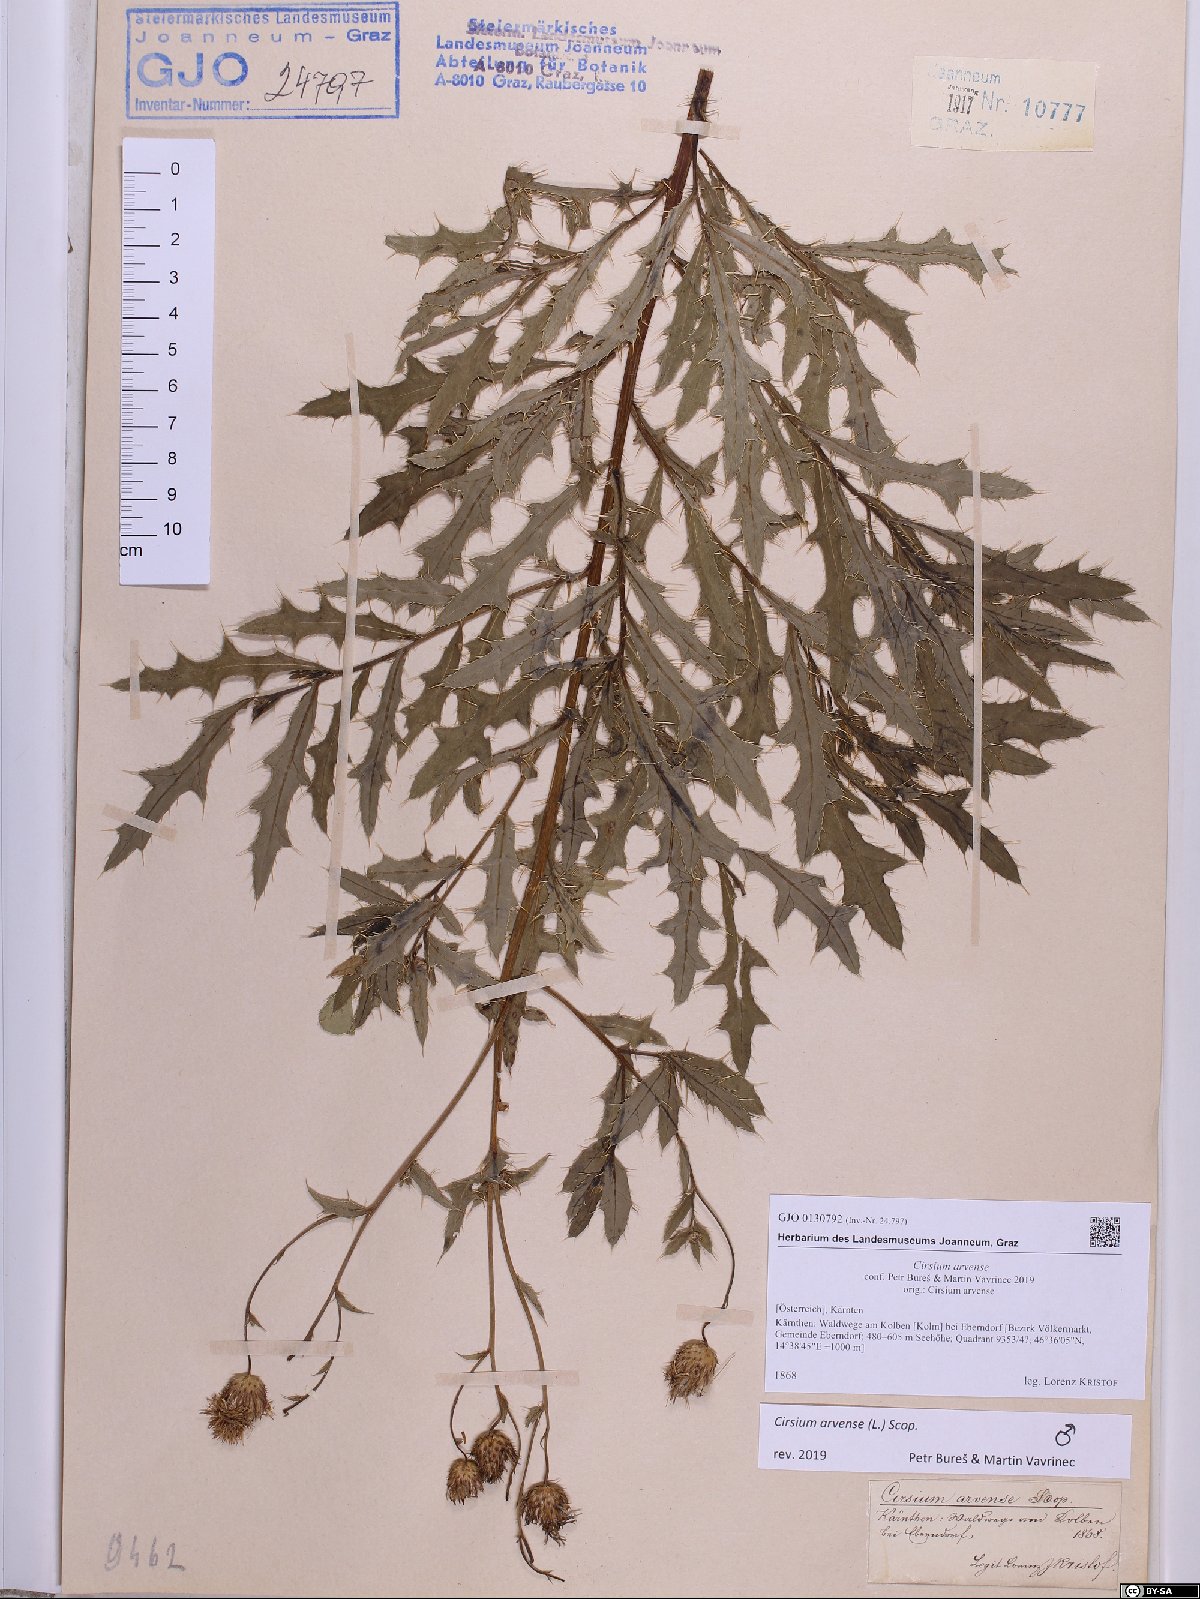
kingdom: Plantae
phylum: Tracheophyta
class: Magnoliopsida
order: Asterales
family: Asteraceae
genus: Cirsium
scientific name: Cirsium arvense
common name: Creeping thistle
